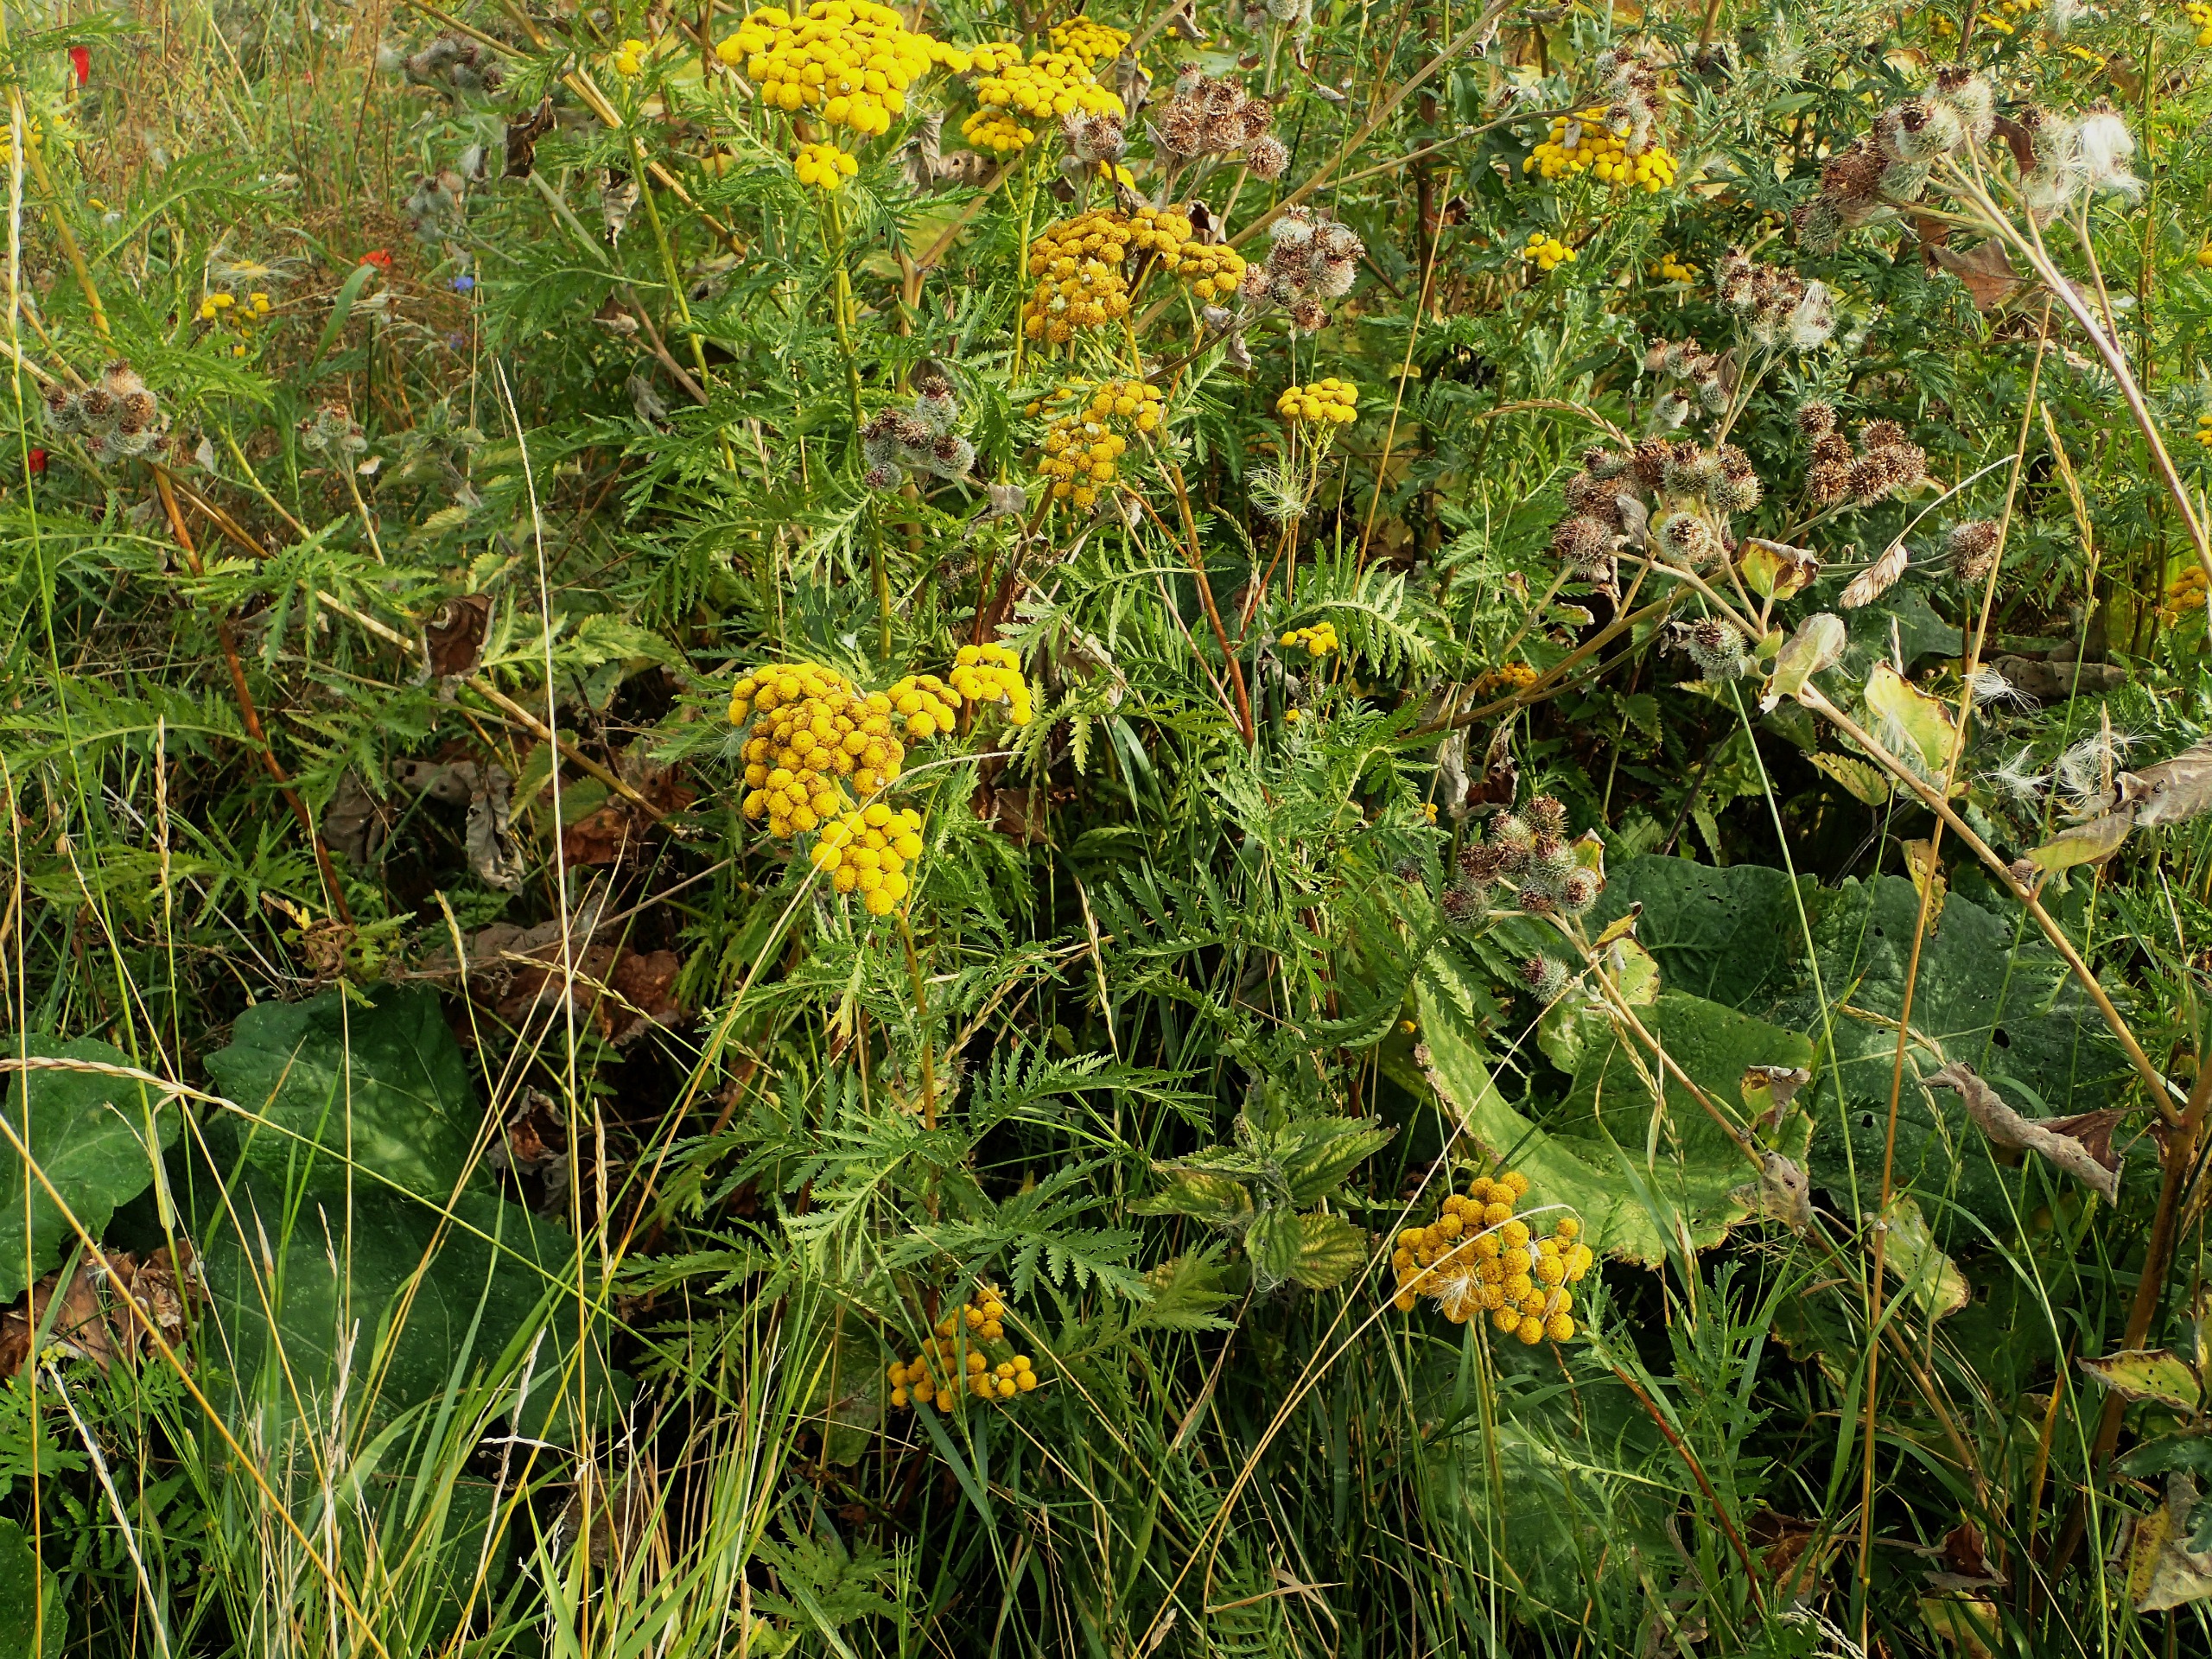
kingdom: Plantae
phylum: Tracheophyta
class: Magnoliopsida
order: Asterales
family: Asteraceae
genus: Tanacetum
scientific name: Tanacetum vulgare
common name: Rejnfan
